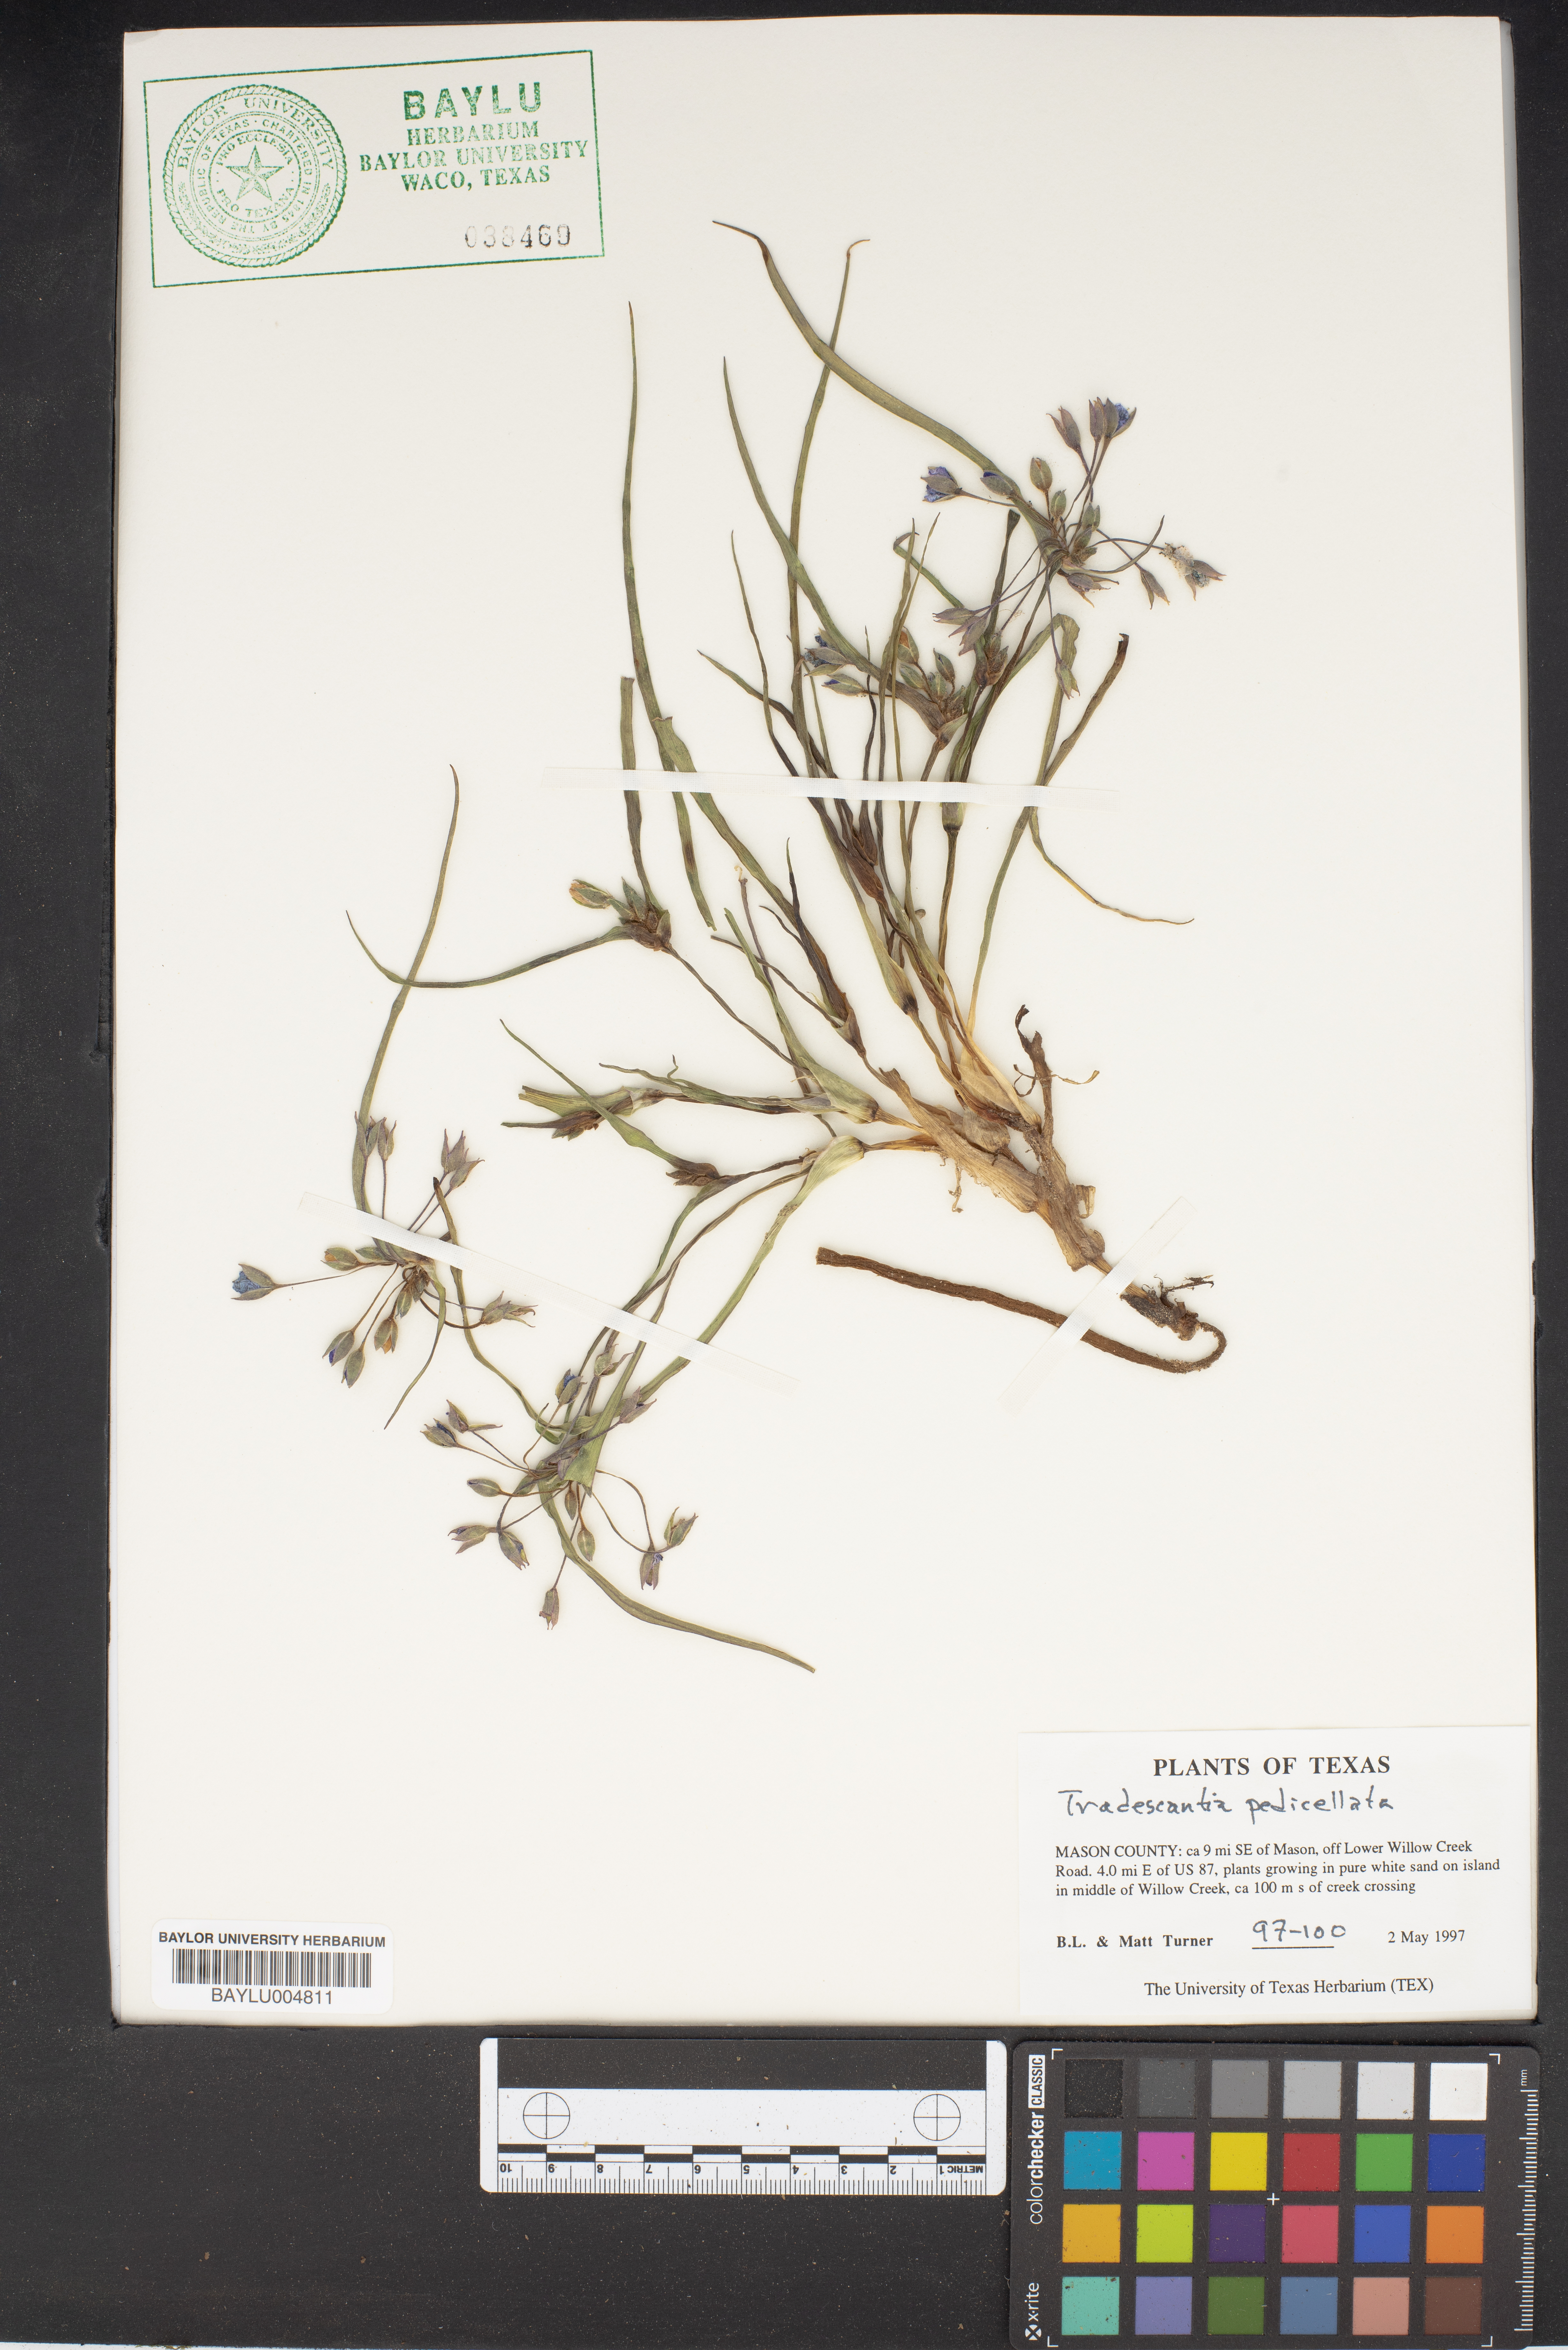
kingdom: Plantae
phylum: Tracheophyta
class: Liliopsida
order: Commelinales
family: Commelinaceae
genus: Tradescantia
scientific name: Tradescantia pedicellata
